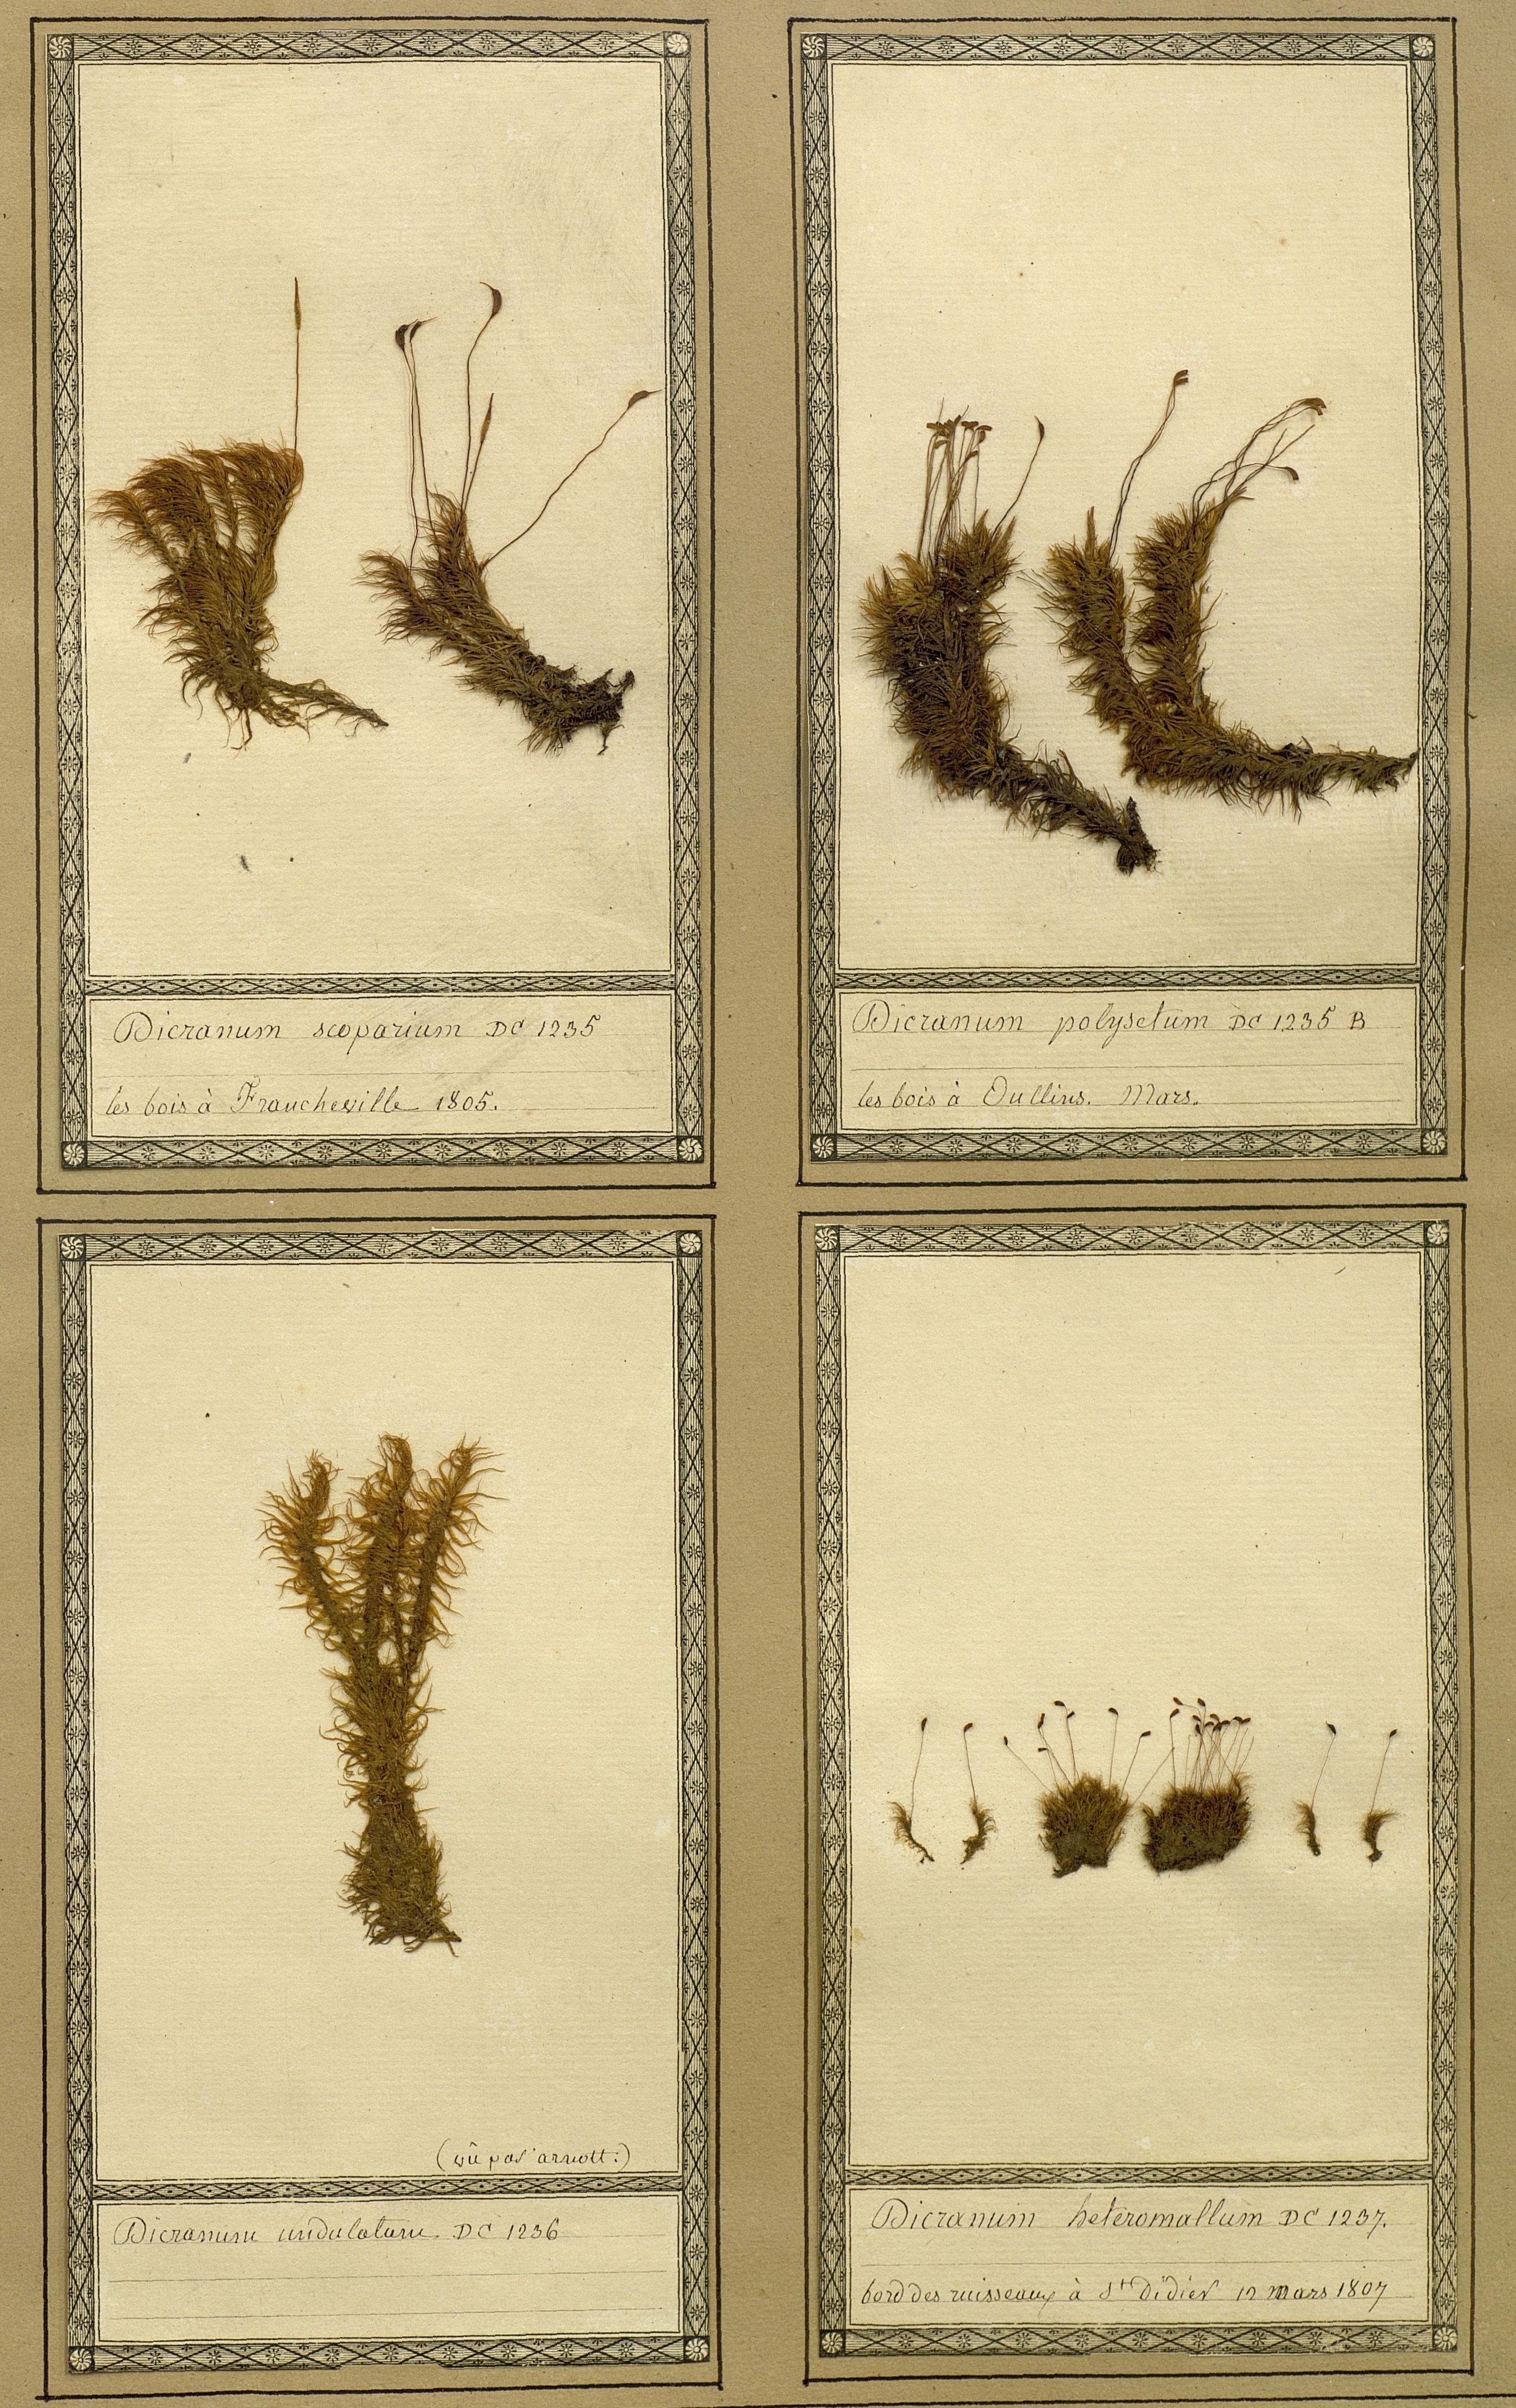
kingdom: Plantae
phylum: Bryophyta
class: Bryopsida
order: Dicranales
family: Dicranellaceae
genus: Dicranella
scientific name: Dicranella heteromalla
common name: Silky forklet moss
